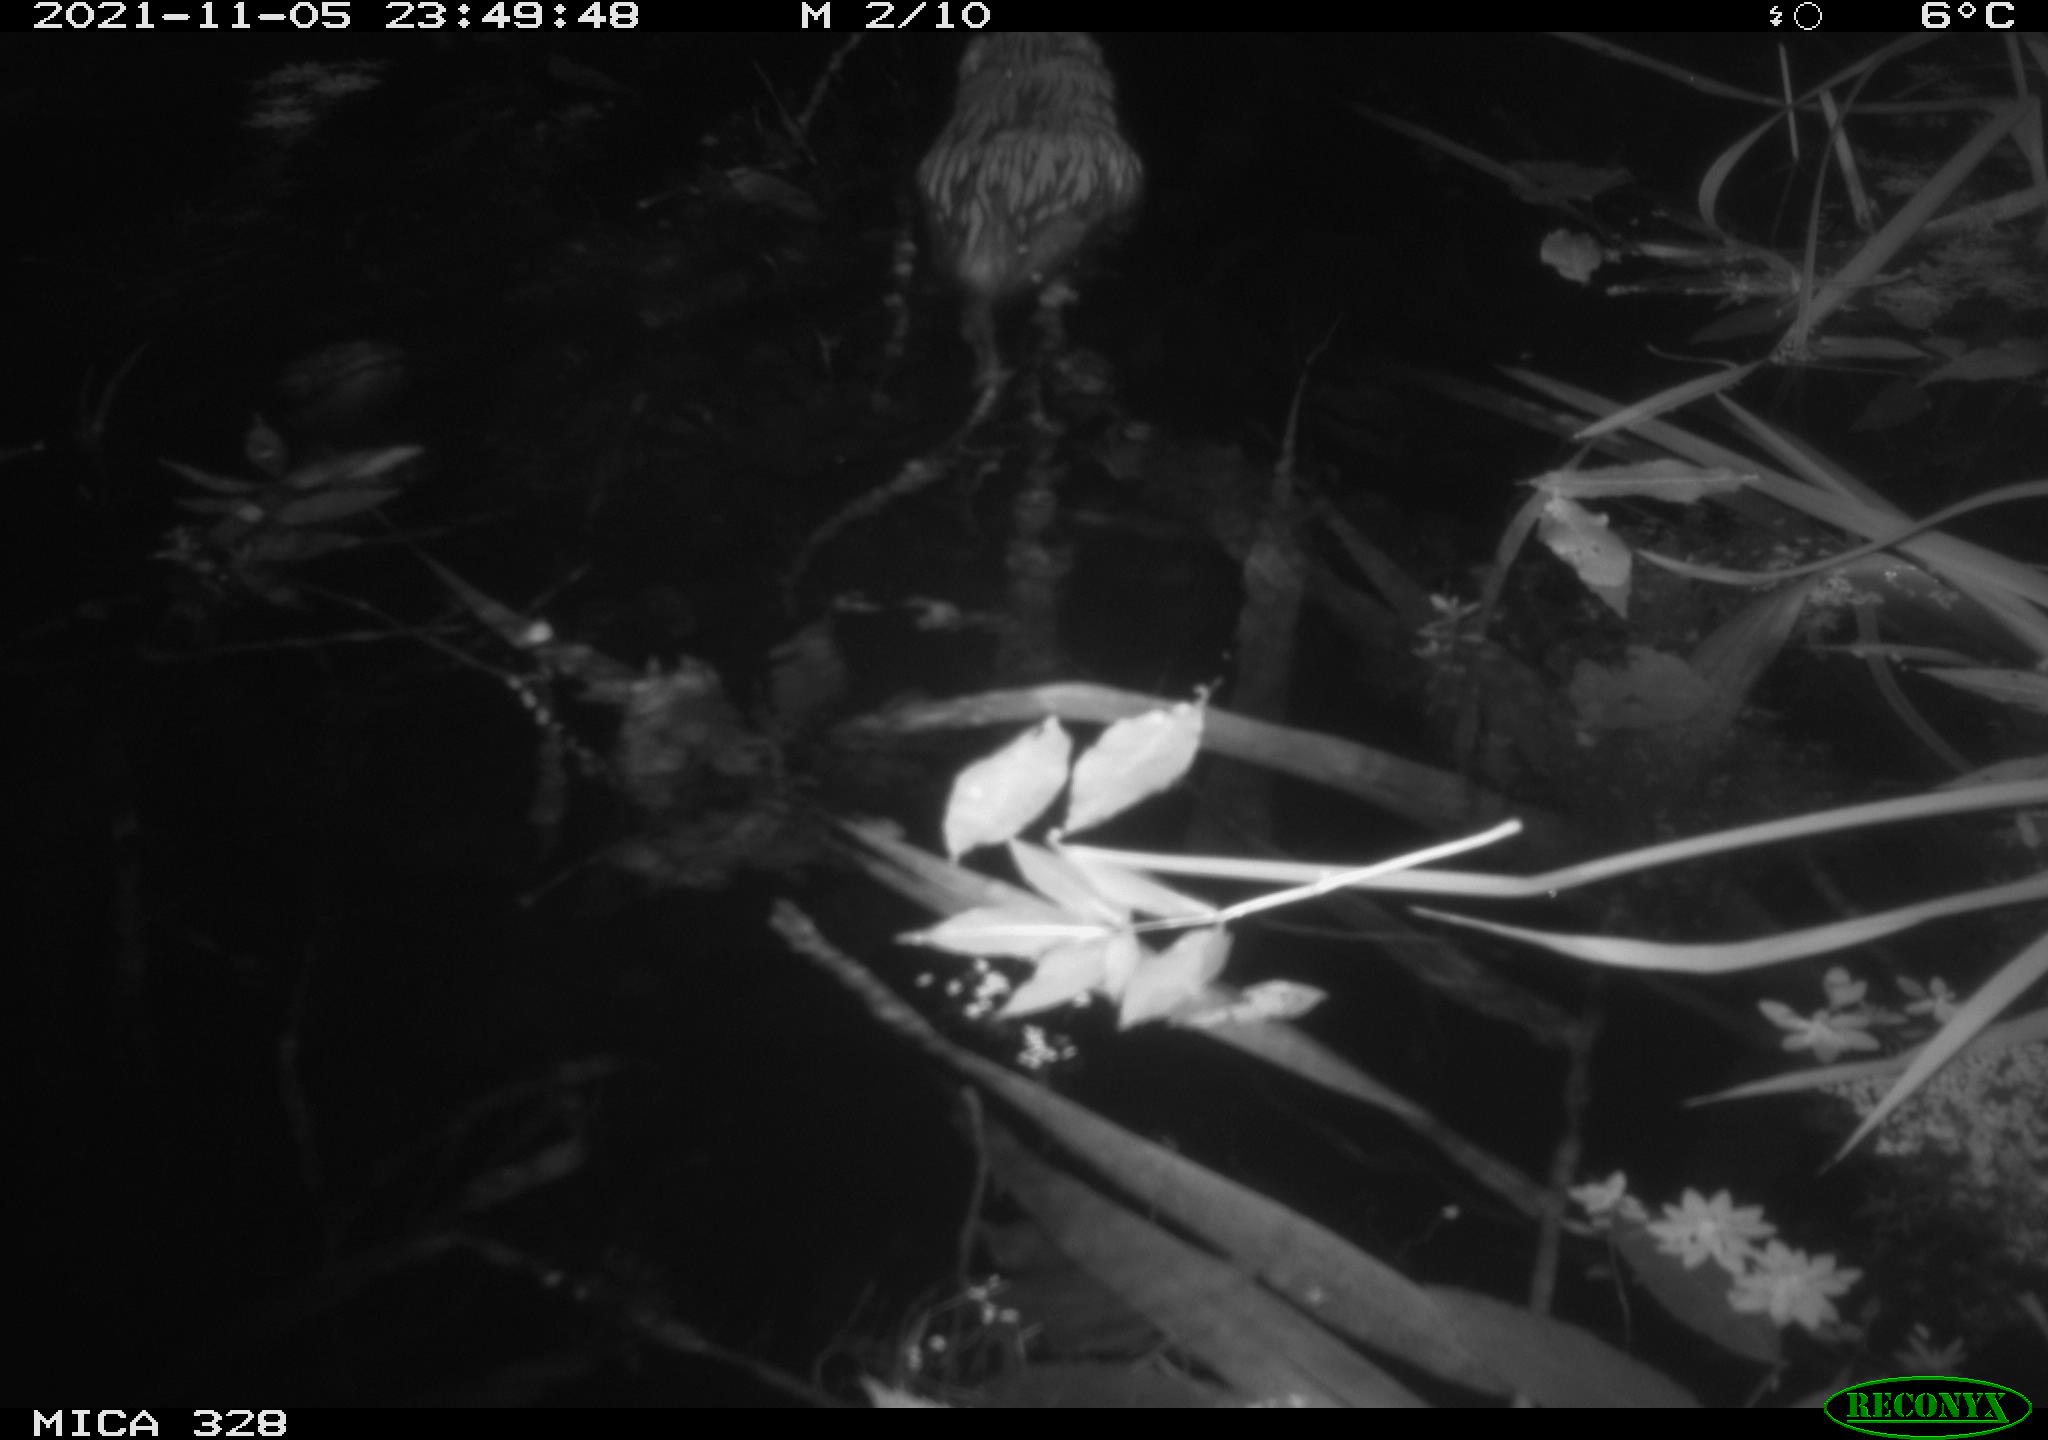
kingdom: Animalia
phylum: Chordata
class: Mammalia
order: Rodentia
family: Cricetidae
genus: Ondatra
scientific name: Ondatra zibethicus
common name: Muskrat
